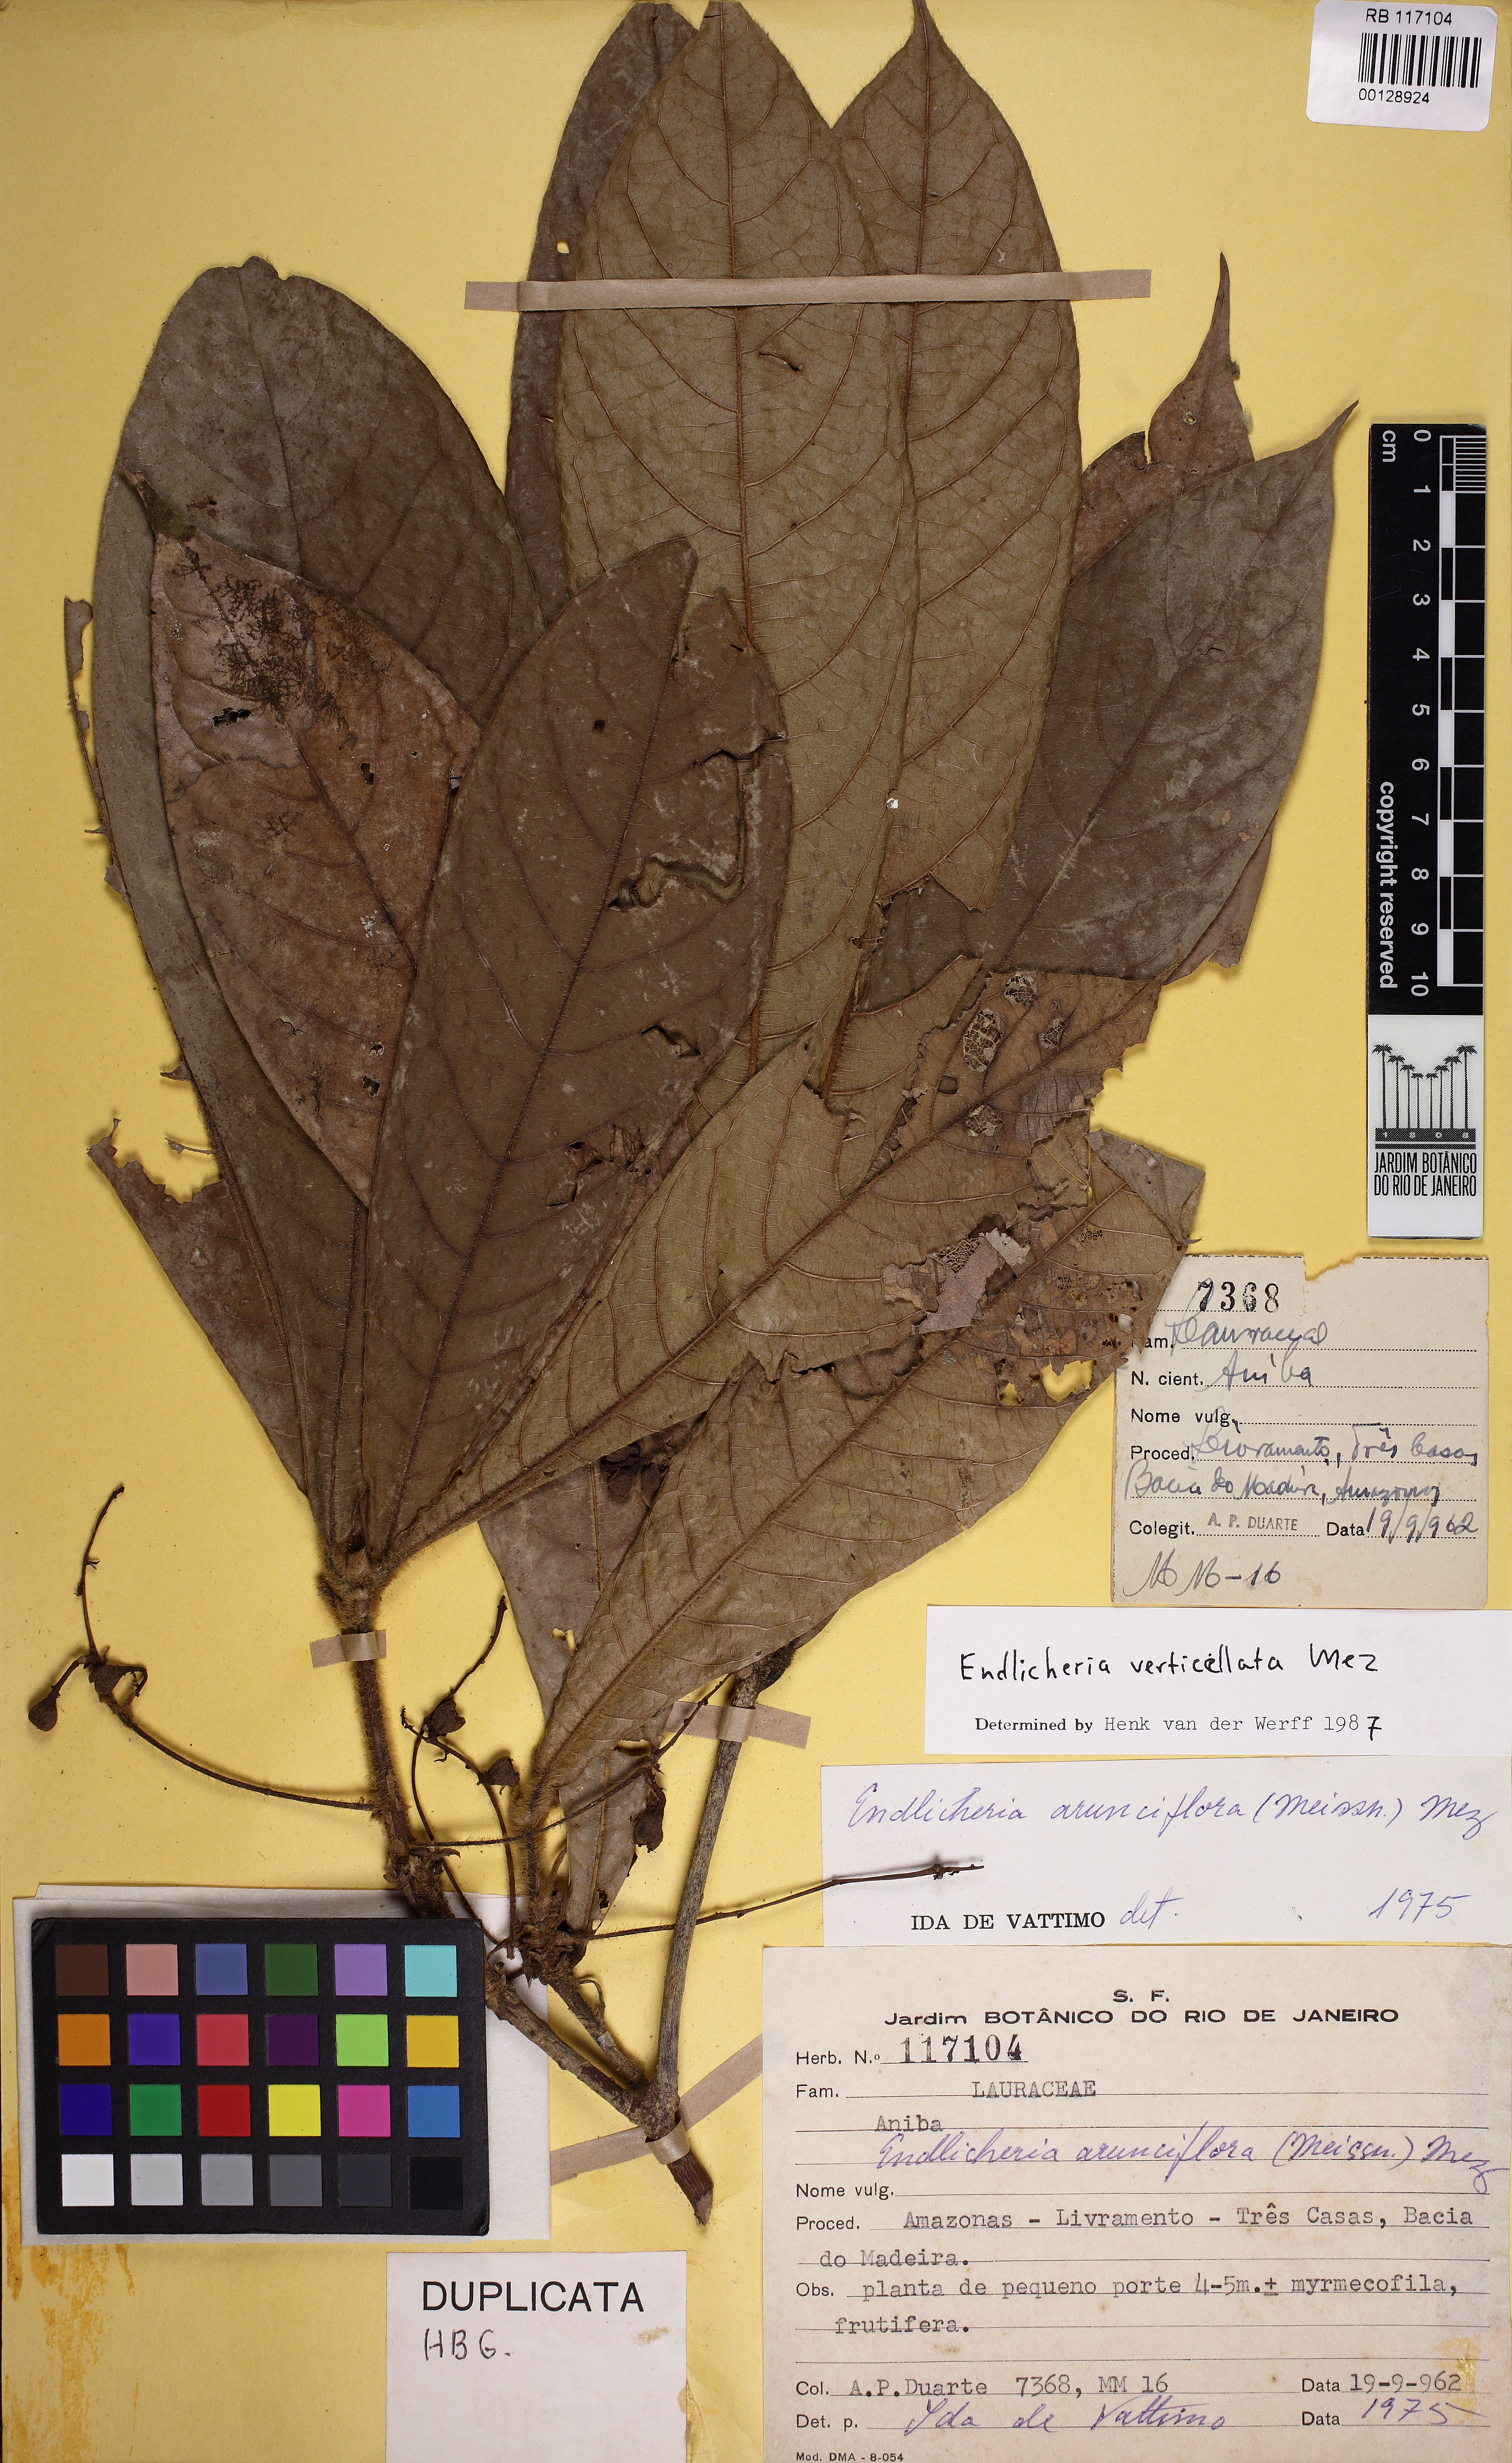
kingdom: Plantae
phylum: Tracheophyta
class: Magnoliopsida
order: Laurales
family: Lauraceae
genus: Endlicheria
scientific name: Endlicheria verticillata
